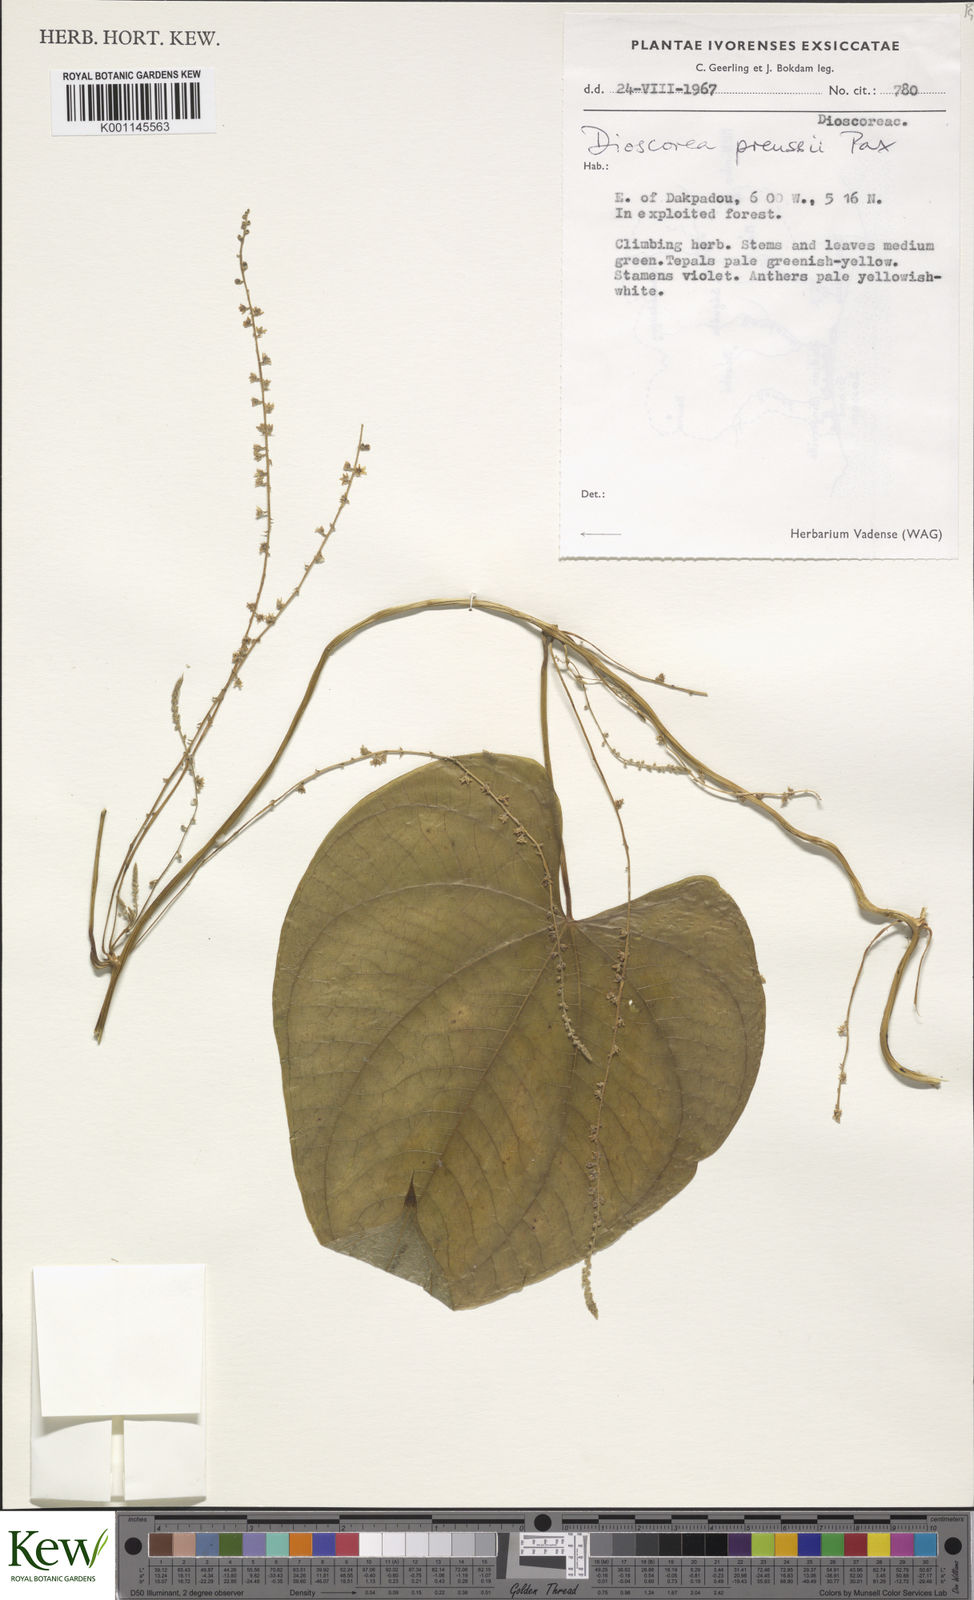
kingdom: Plantae
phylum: Tracheophyta
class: Liliopsida
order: Dioscoreales
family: Dioscoreaceae
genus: Dioscorea
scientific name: Dioscorea preussii
